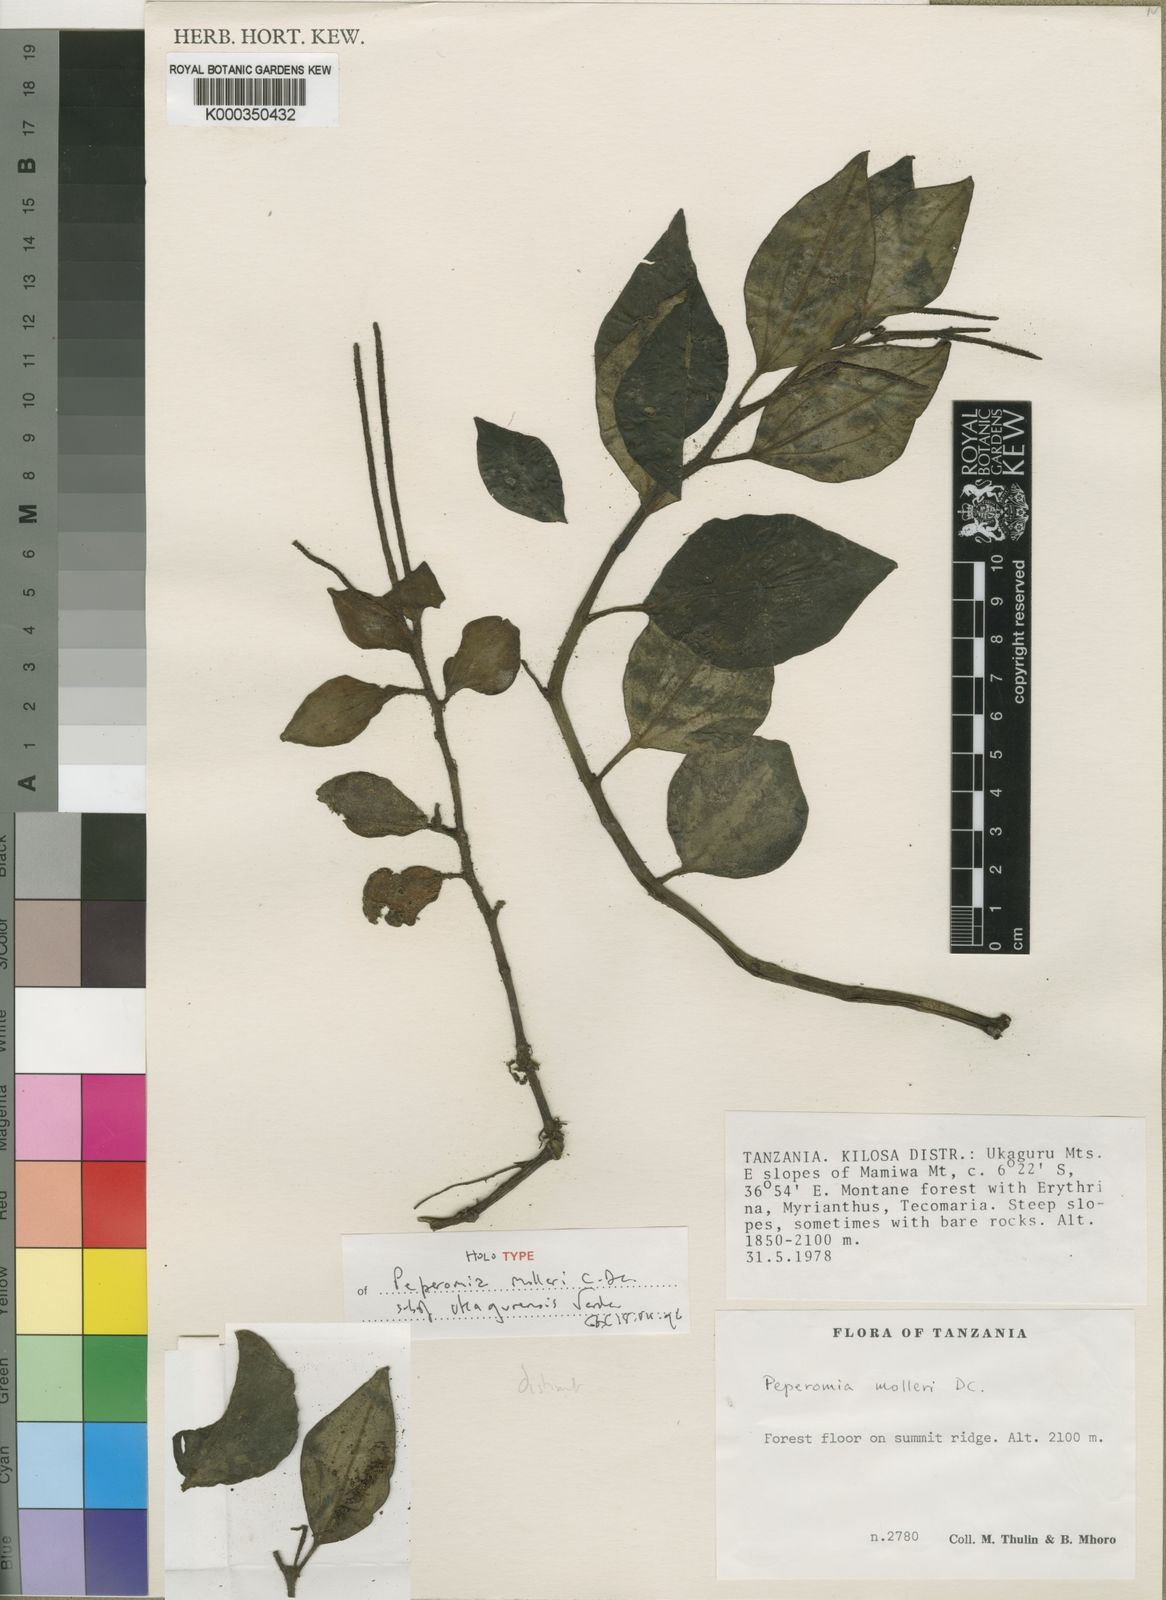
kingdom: Plantae
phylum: Tracheophyta
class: Magnoliopsida
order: Piperales
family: Piperaceae
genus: Peperomia
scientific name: Peperomia molleri
